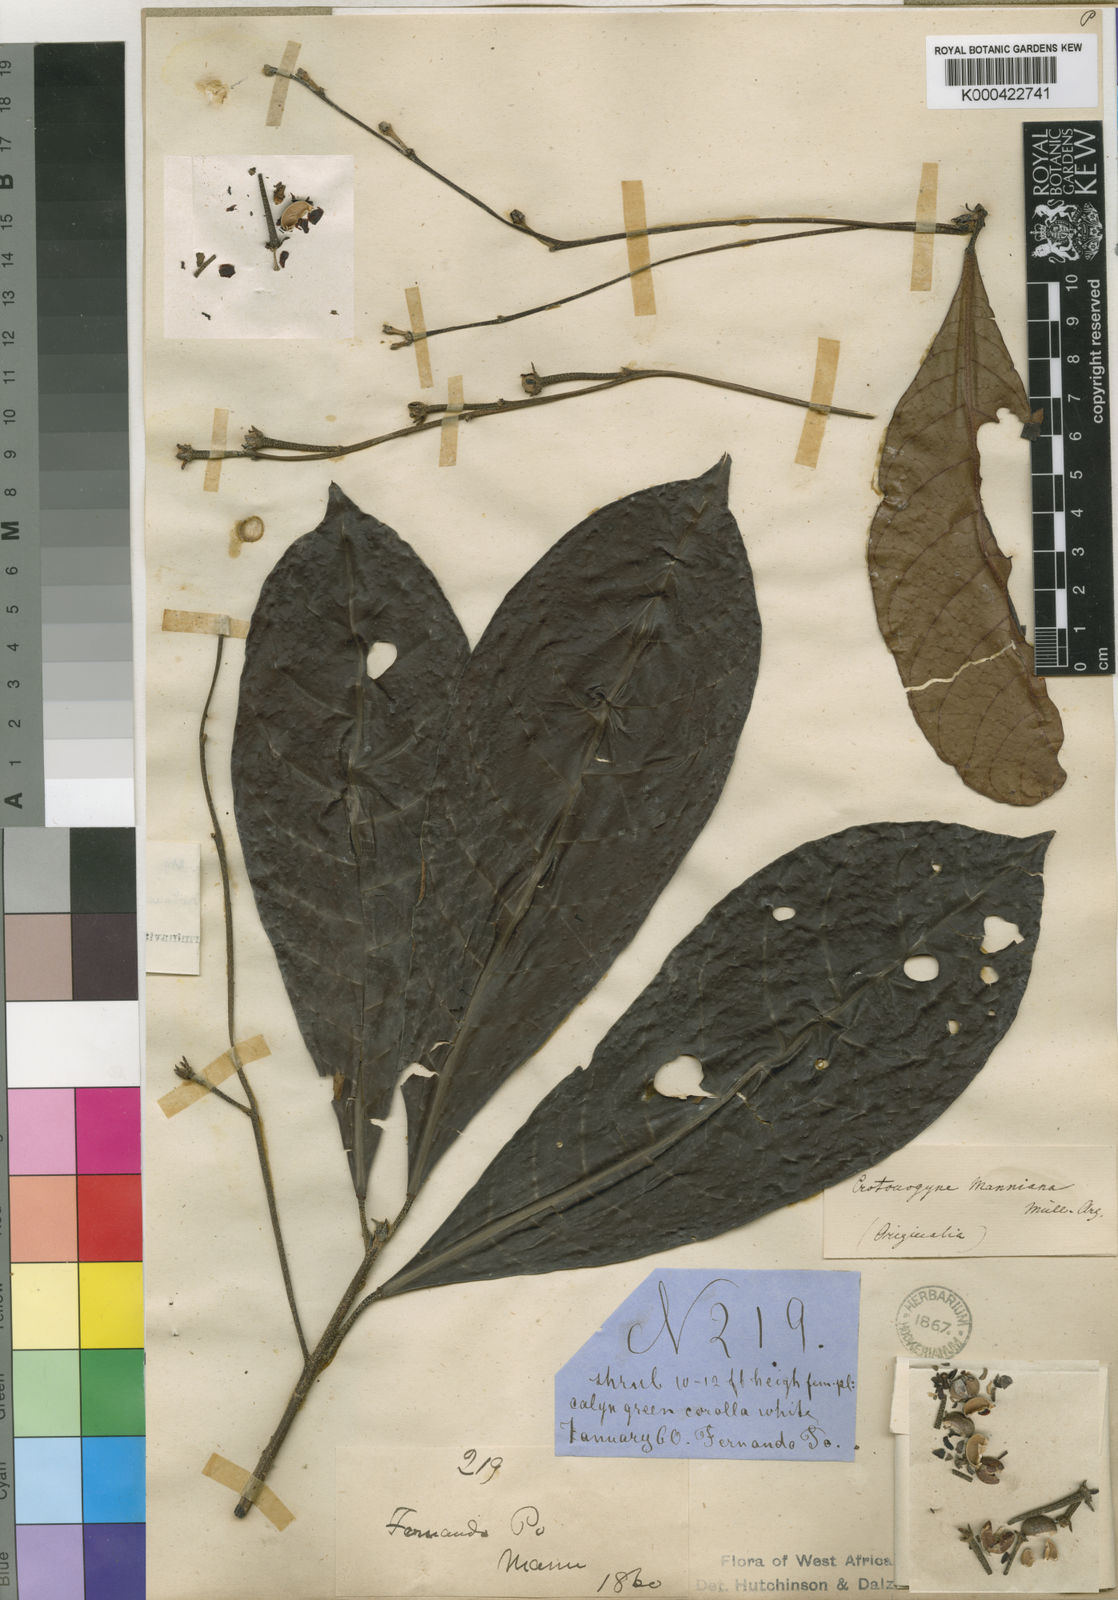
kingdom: Plantae
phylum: Tracheophyta
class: Magnoliopsida
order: Malpighiales
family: Euphorbiaceae
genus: Crotonogyne
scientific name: Crotonogyne
